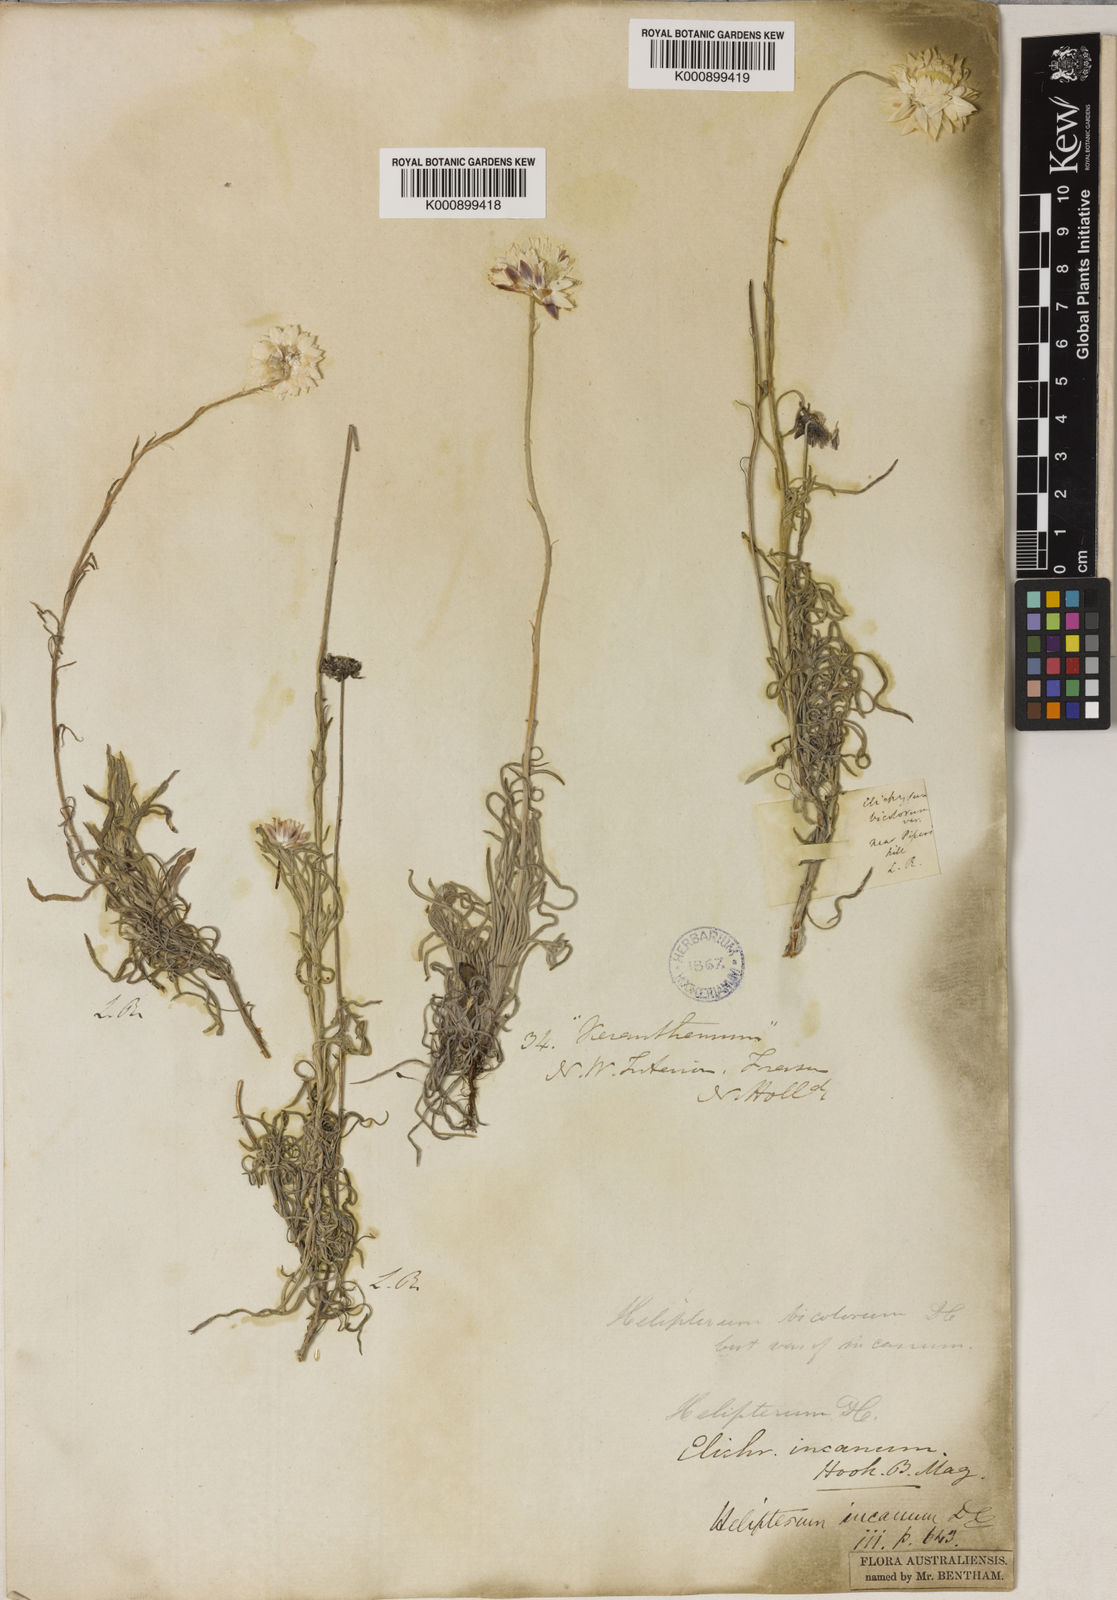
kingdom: Plantae
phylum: Tracheophyta
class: Magnoliopsida
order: Asterales
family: Asteraceae
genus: Leucochrysum
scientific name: Leucochrysum albicans
